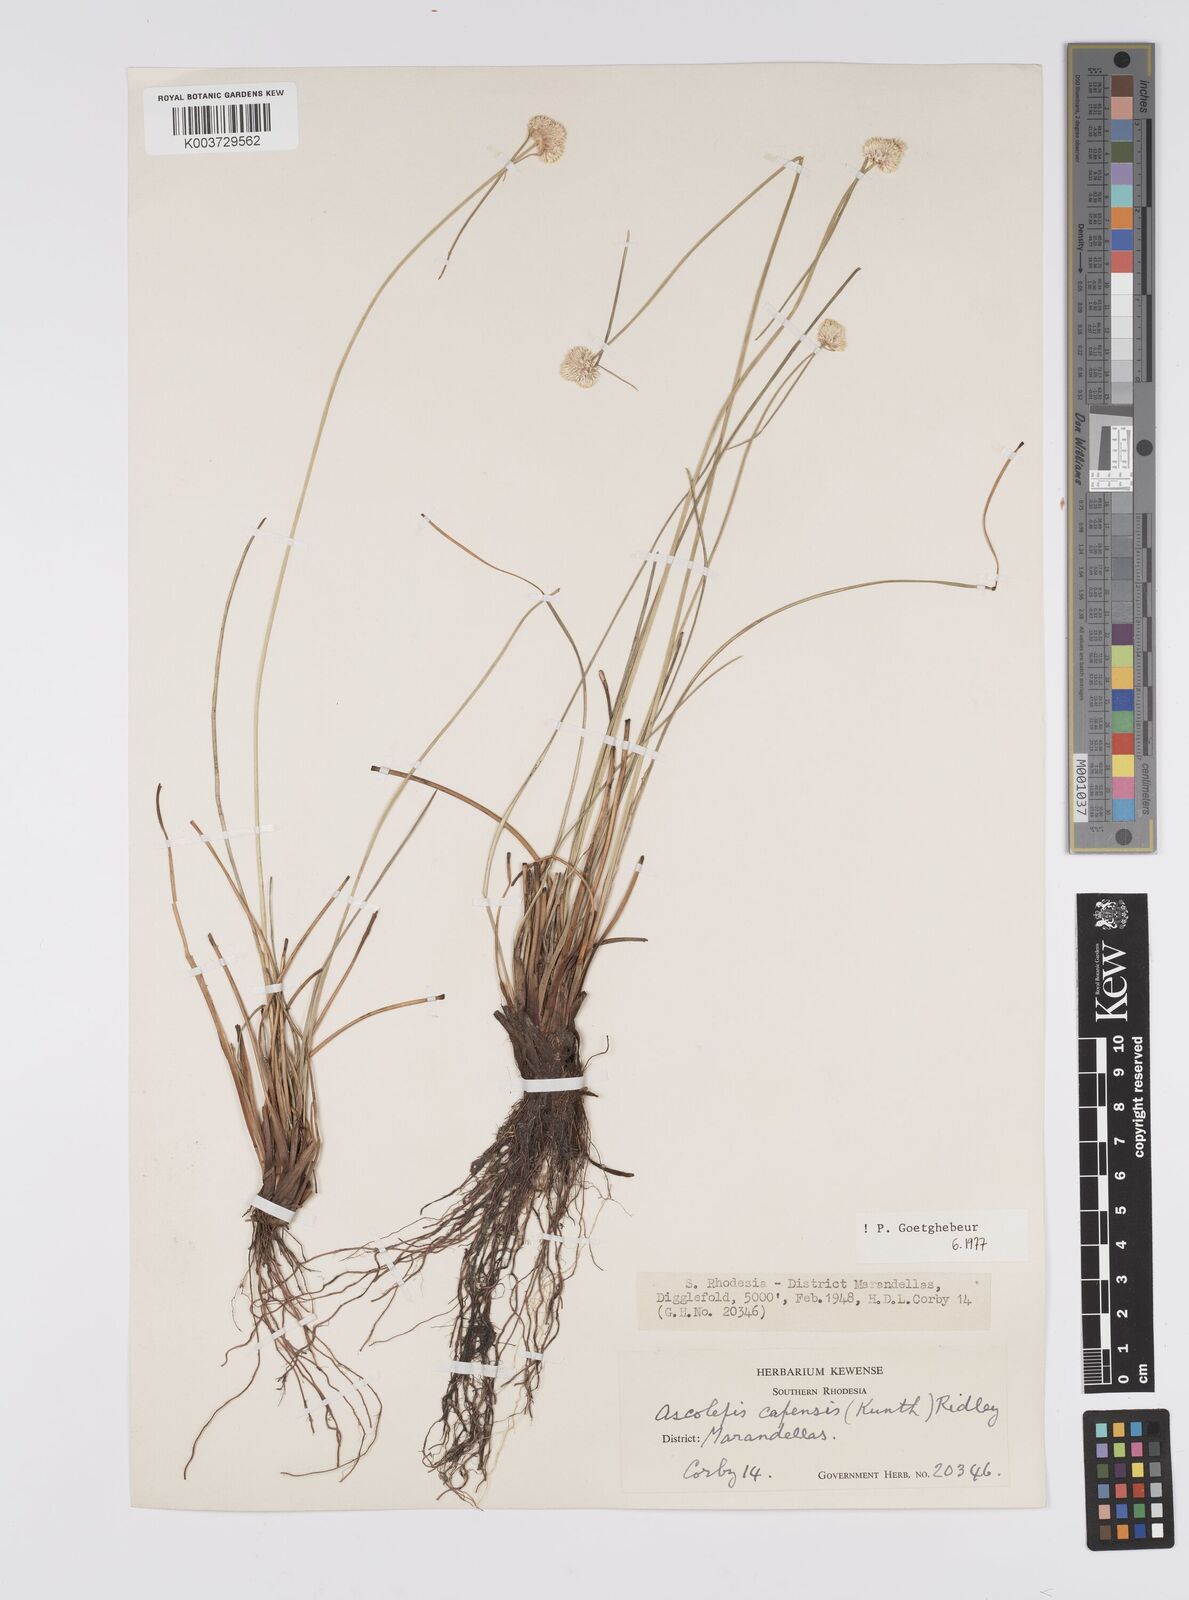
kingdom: Plantae
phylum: Tracheophyta
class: Liliopsida
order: Poales
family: Cyperaceae
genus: Cyperus
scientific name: Cyperus
